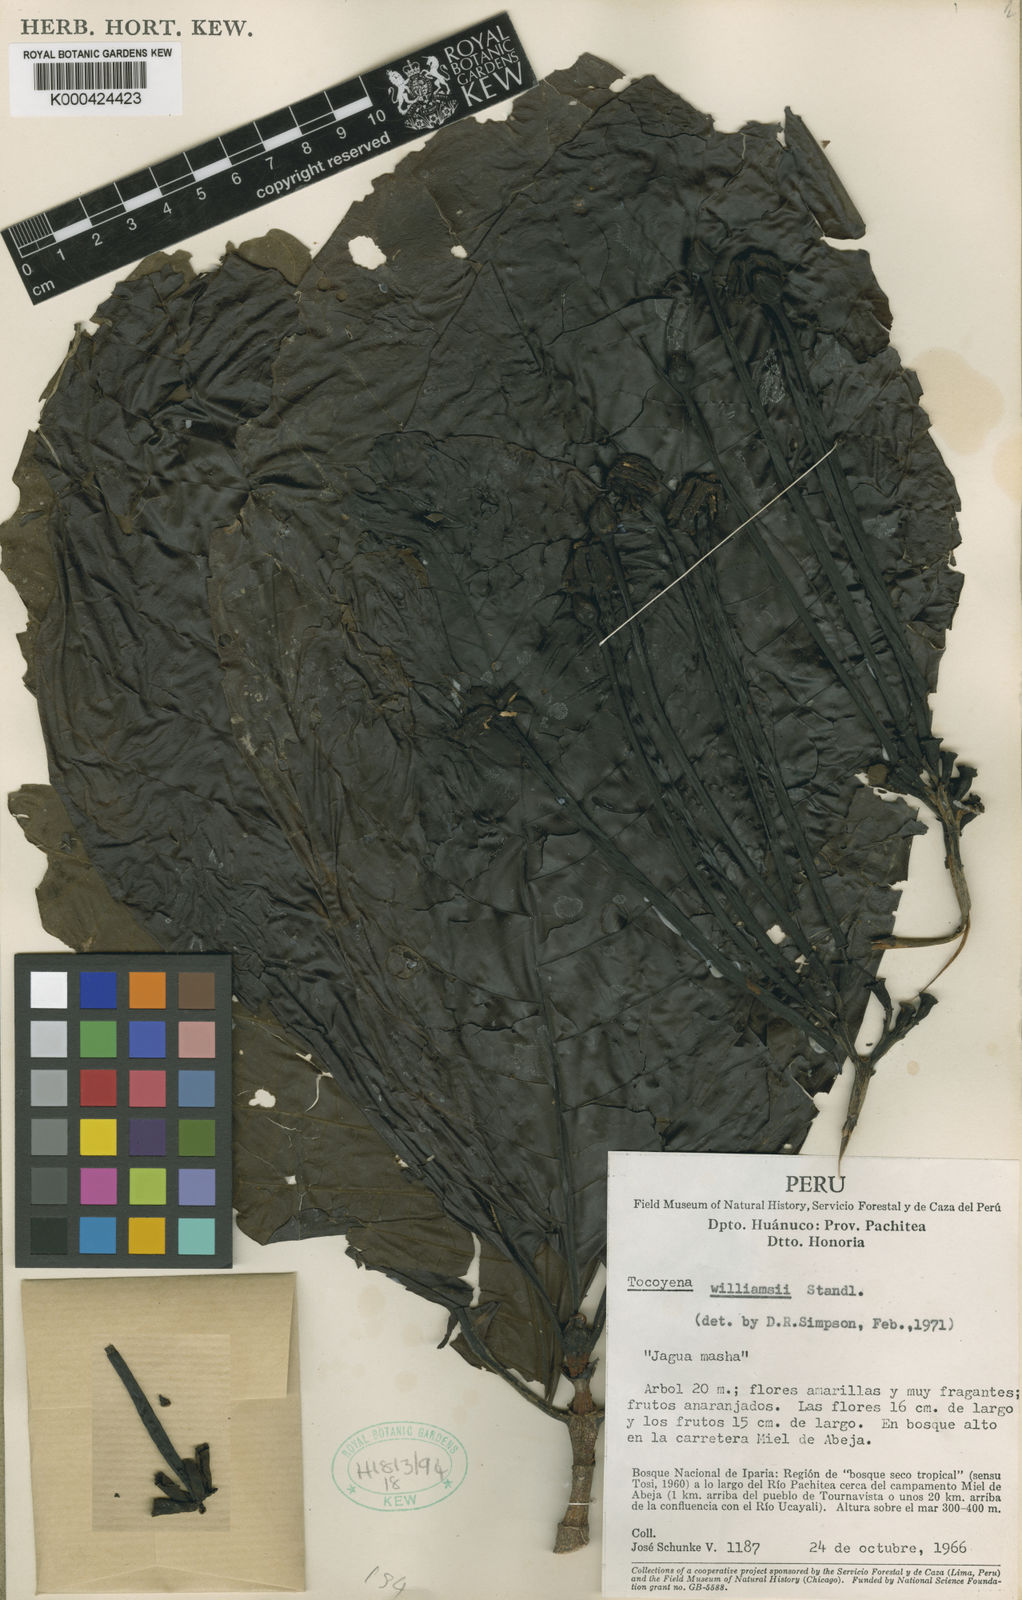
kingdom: Plantae
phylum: Tracheophyta
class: Magnoliopsida
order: Gentianales
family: Rubiaceae
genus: Tocoyena
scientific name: Tocoyena pittieri
